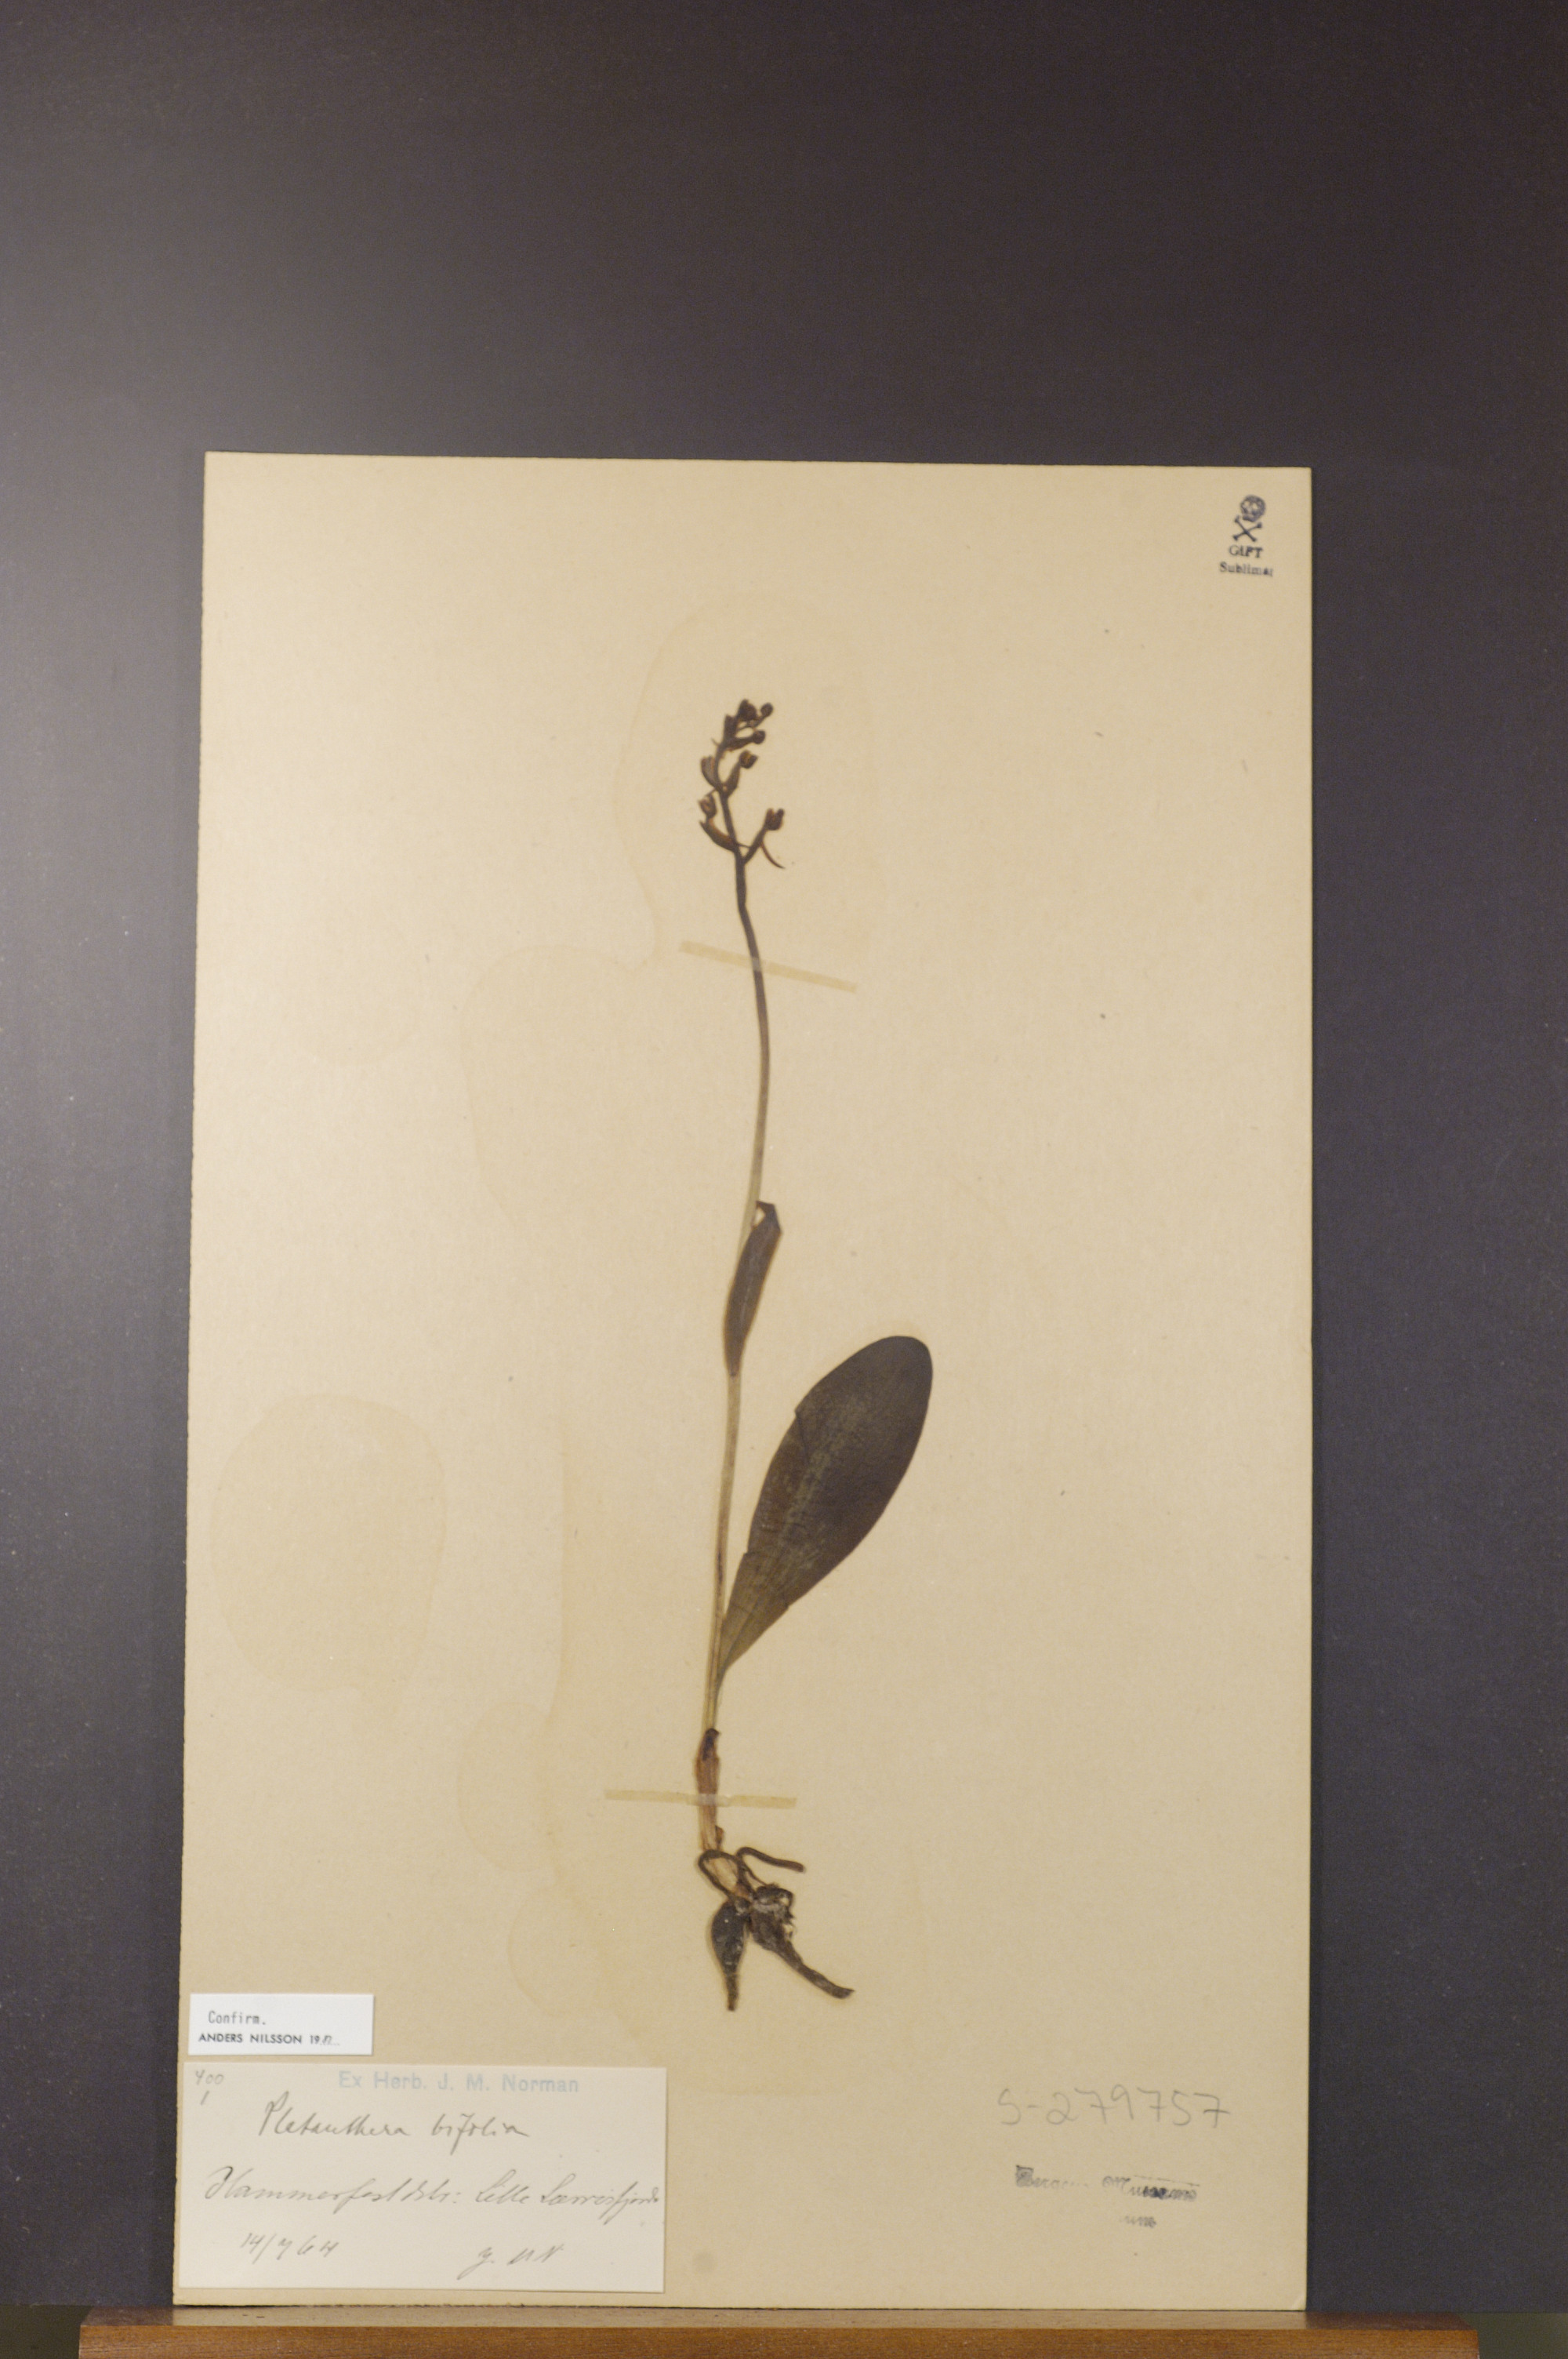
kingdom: Plantae
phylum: Tracheophyta
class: Liliopsida
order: Asparagales
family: Orchidaceae
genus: Platanthera
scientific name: Platanthera bifolia
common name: Lesser butterfly-orchid
